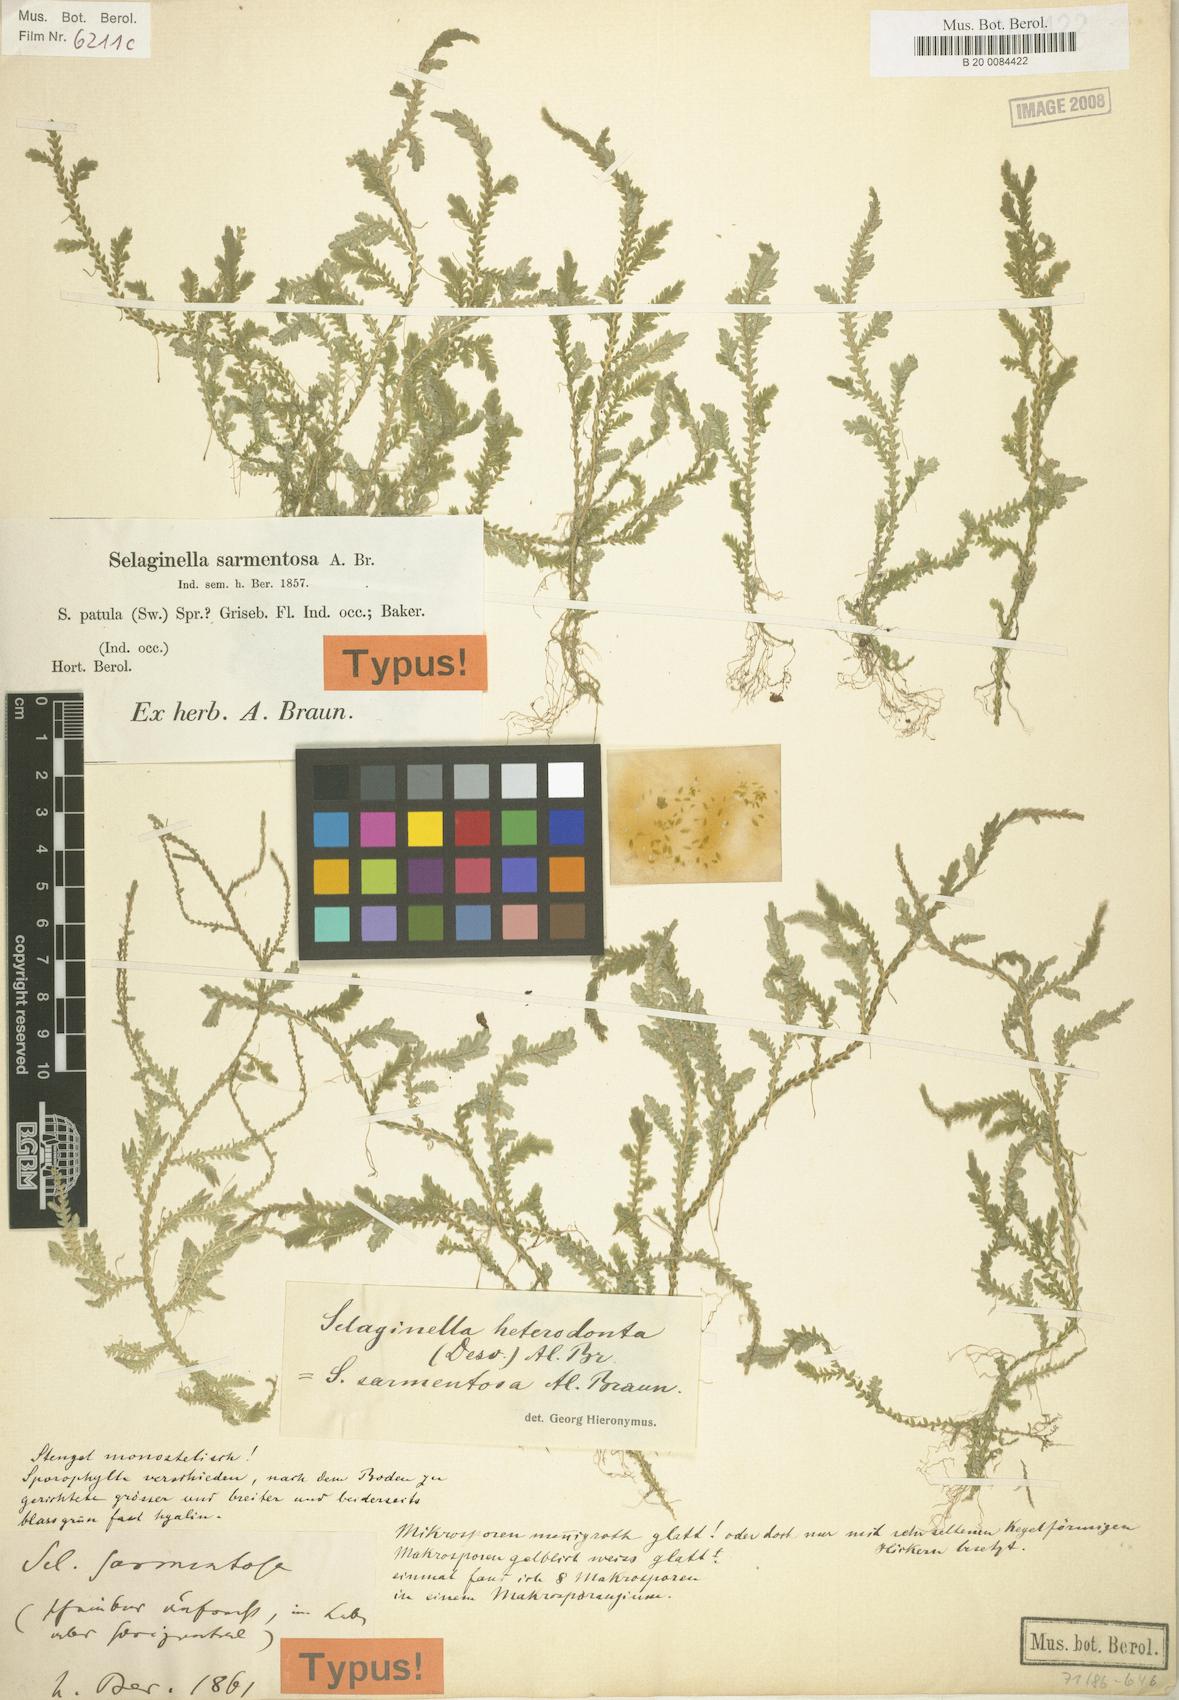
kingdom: Plantae
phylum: Tracheophyta
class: Lycopodiopsida
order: Selaginellales
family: Selaginellaceae
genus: Selaginella
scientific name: Selaginella heterodonta
